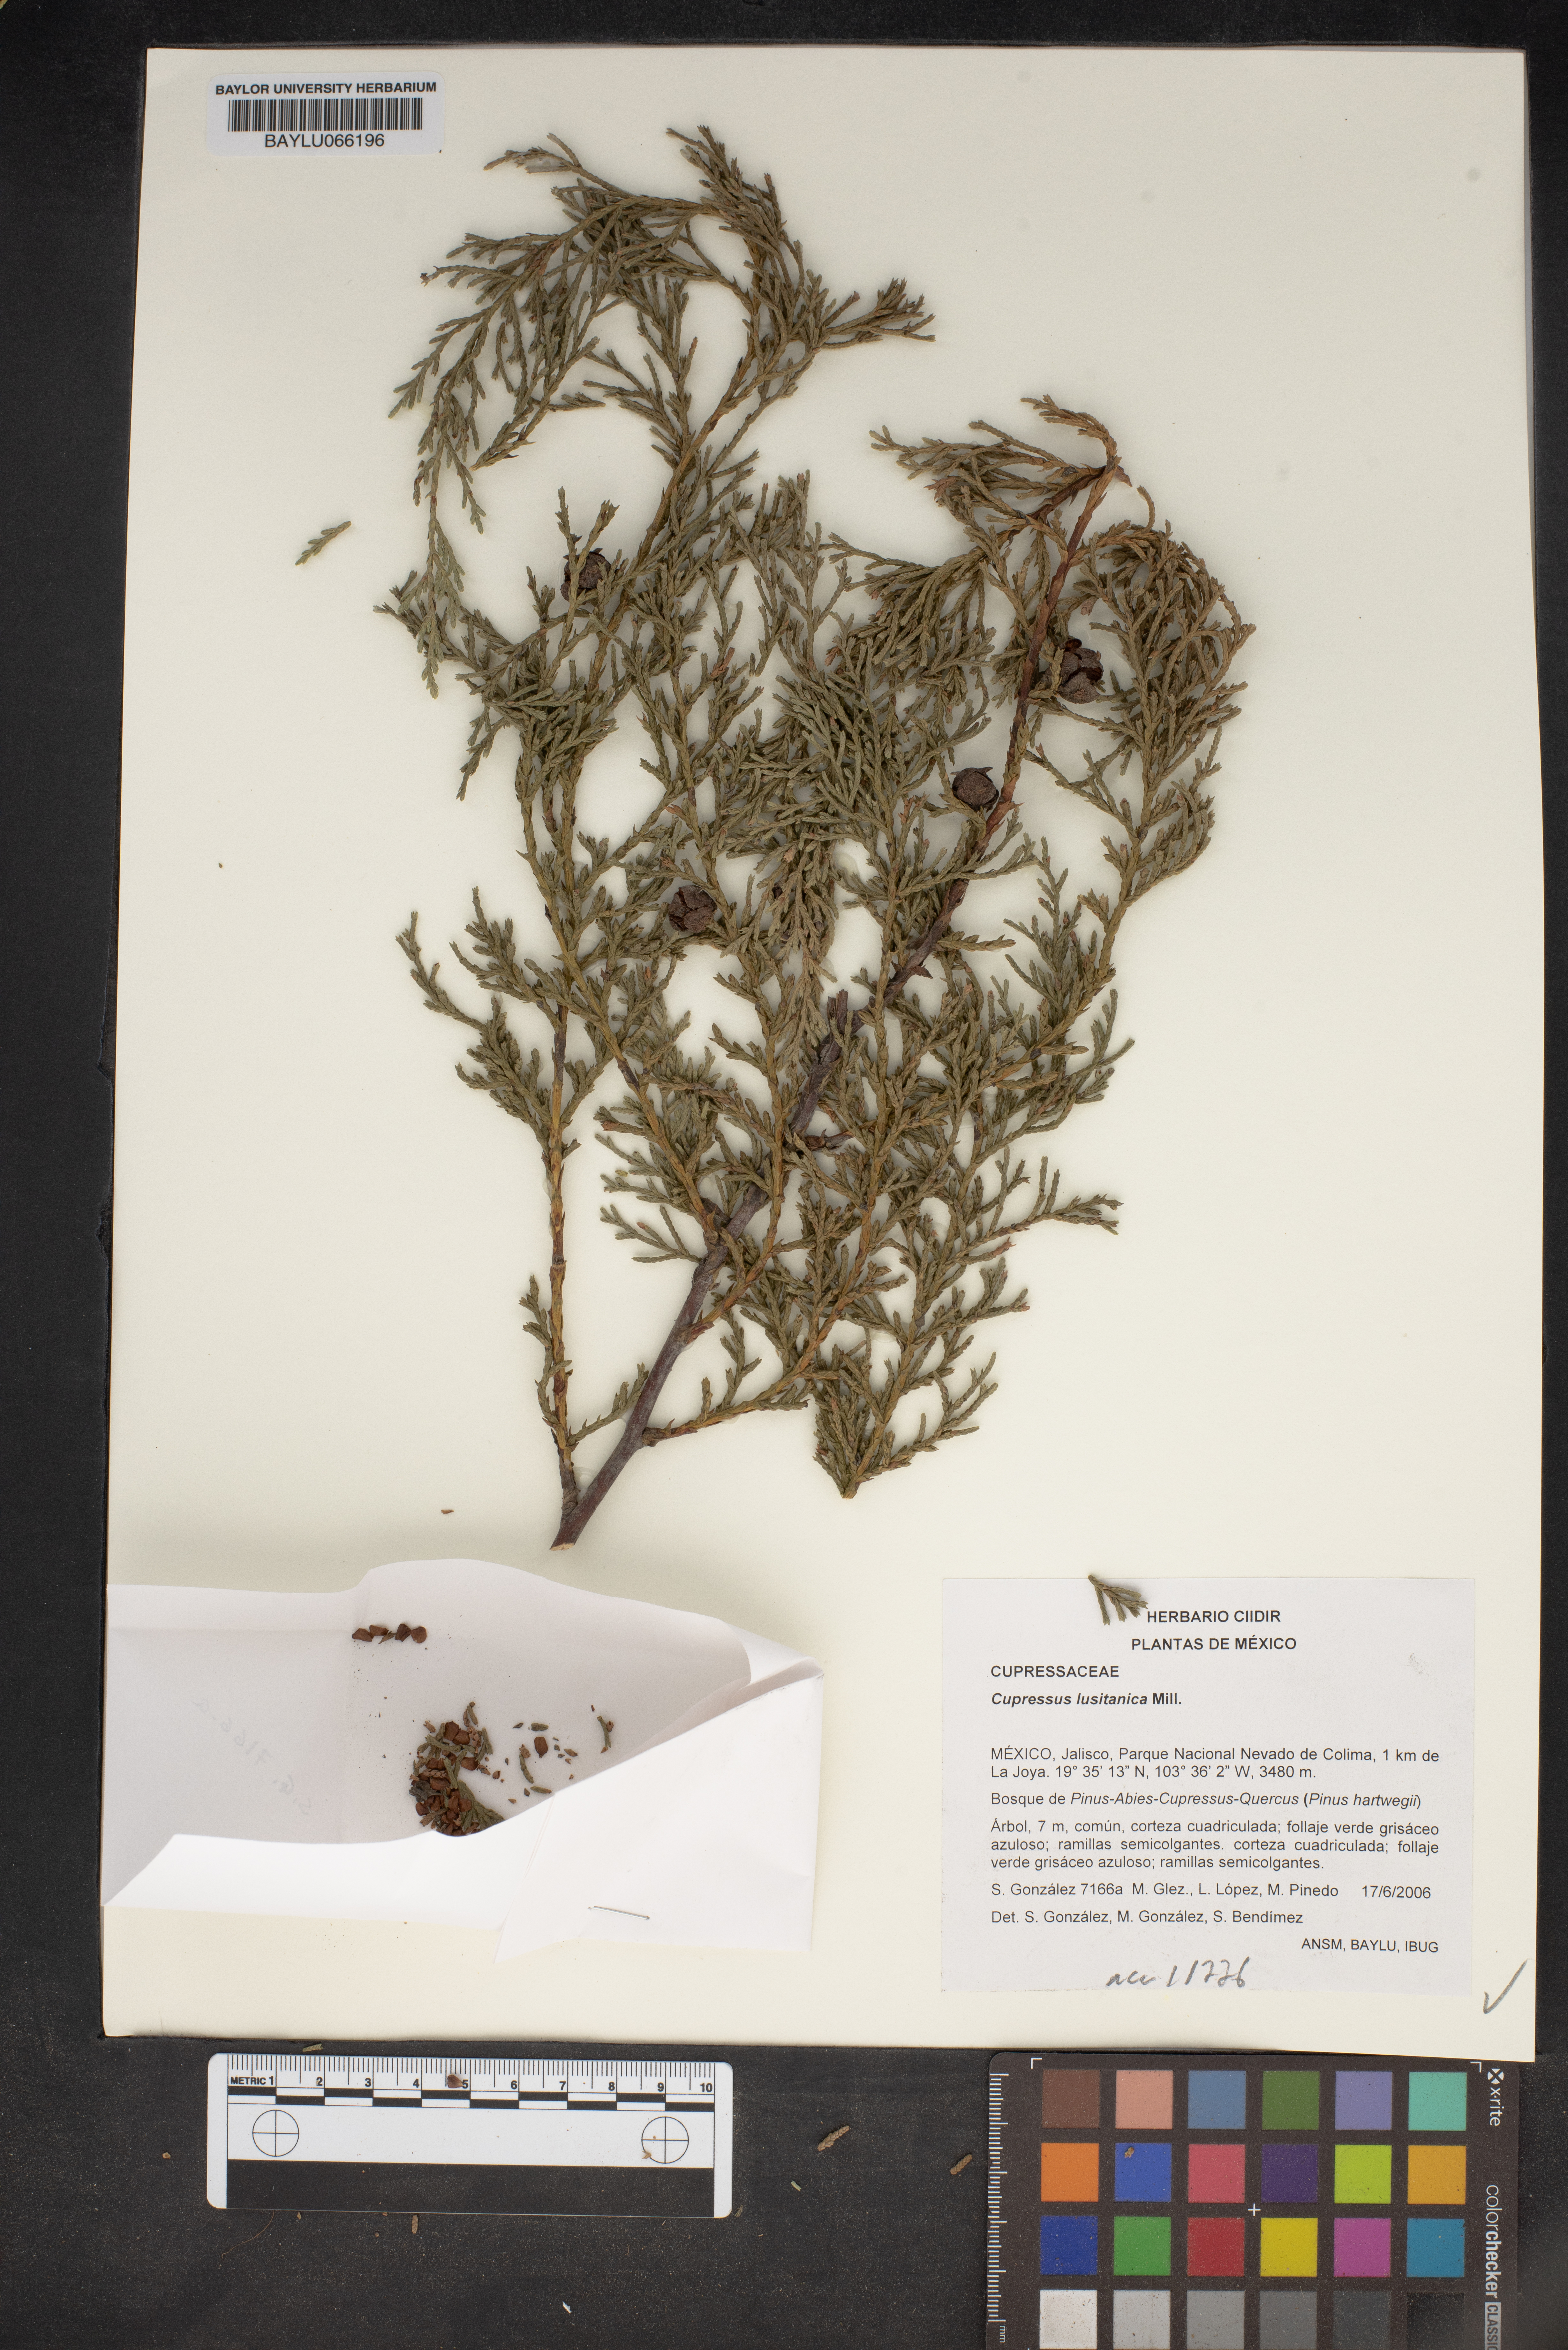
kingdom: Plantae
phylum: Tracheophyta
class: Pinopsida
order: Pinales
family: Cupressaceae
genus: Cupressus
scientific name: Cupressus lusitanica
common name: Mexican cypress
